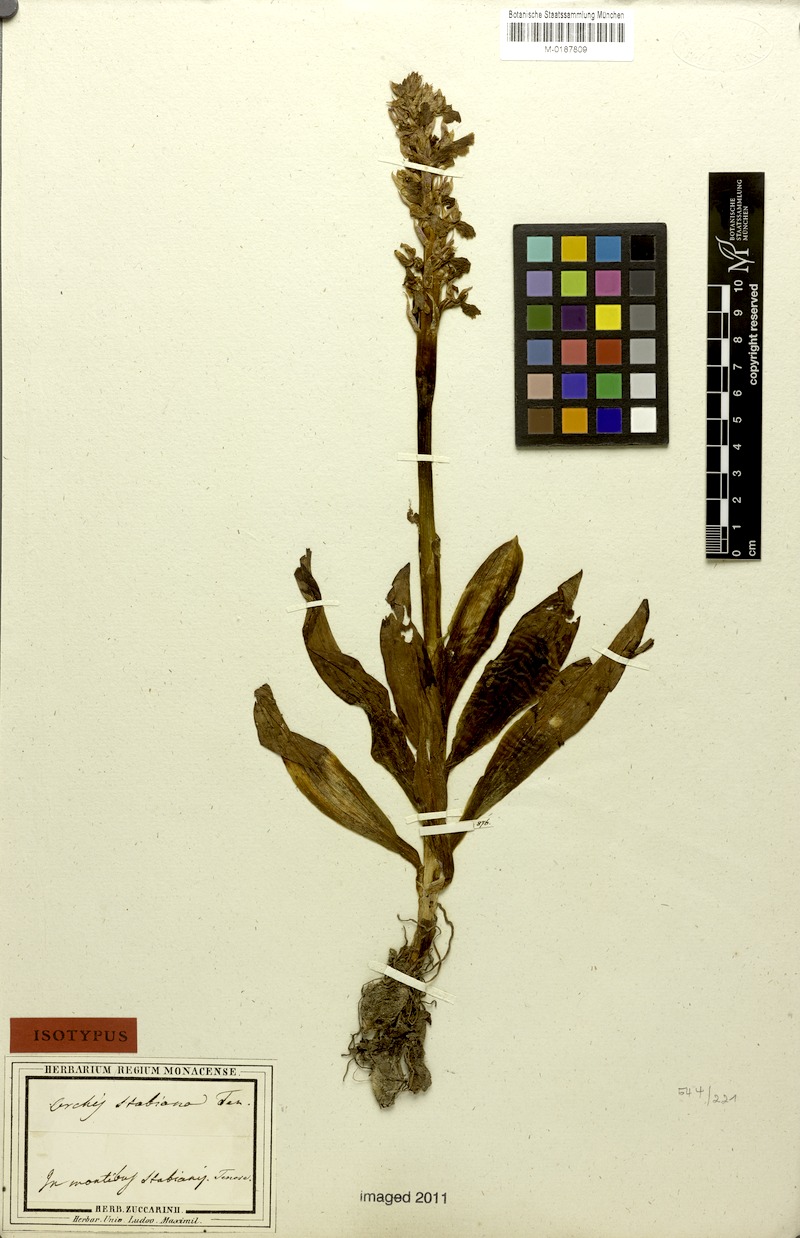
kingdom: Plantae
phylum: Tracheophyta
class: Liliopsida
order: Asparagales
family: Orchidaceae
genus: Orchis
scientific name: Orchis mascula
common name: Early-purple orchid
